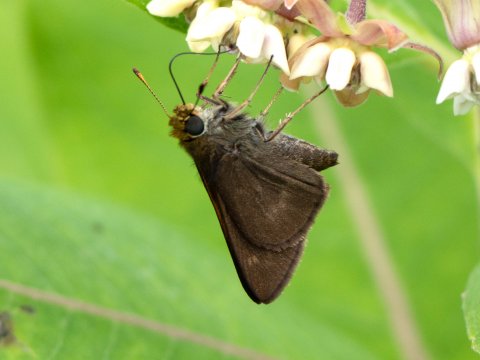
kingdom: Animalia
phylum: Arthropoda
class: Insecta
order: Lepidoptera
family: Hesperiidae
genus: Euphyes
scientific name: Euphyes vestris
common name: Dun Skipper
